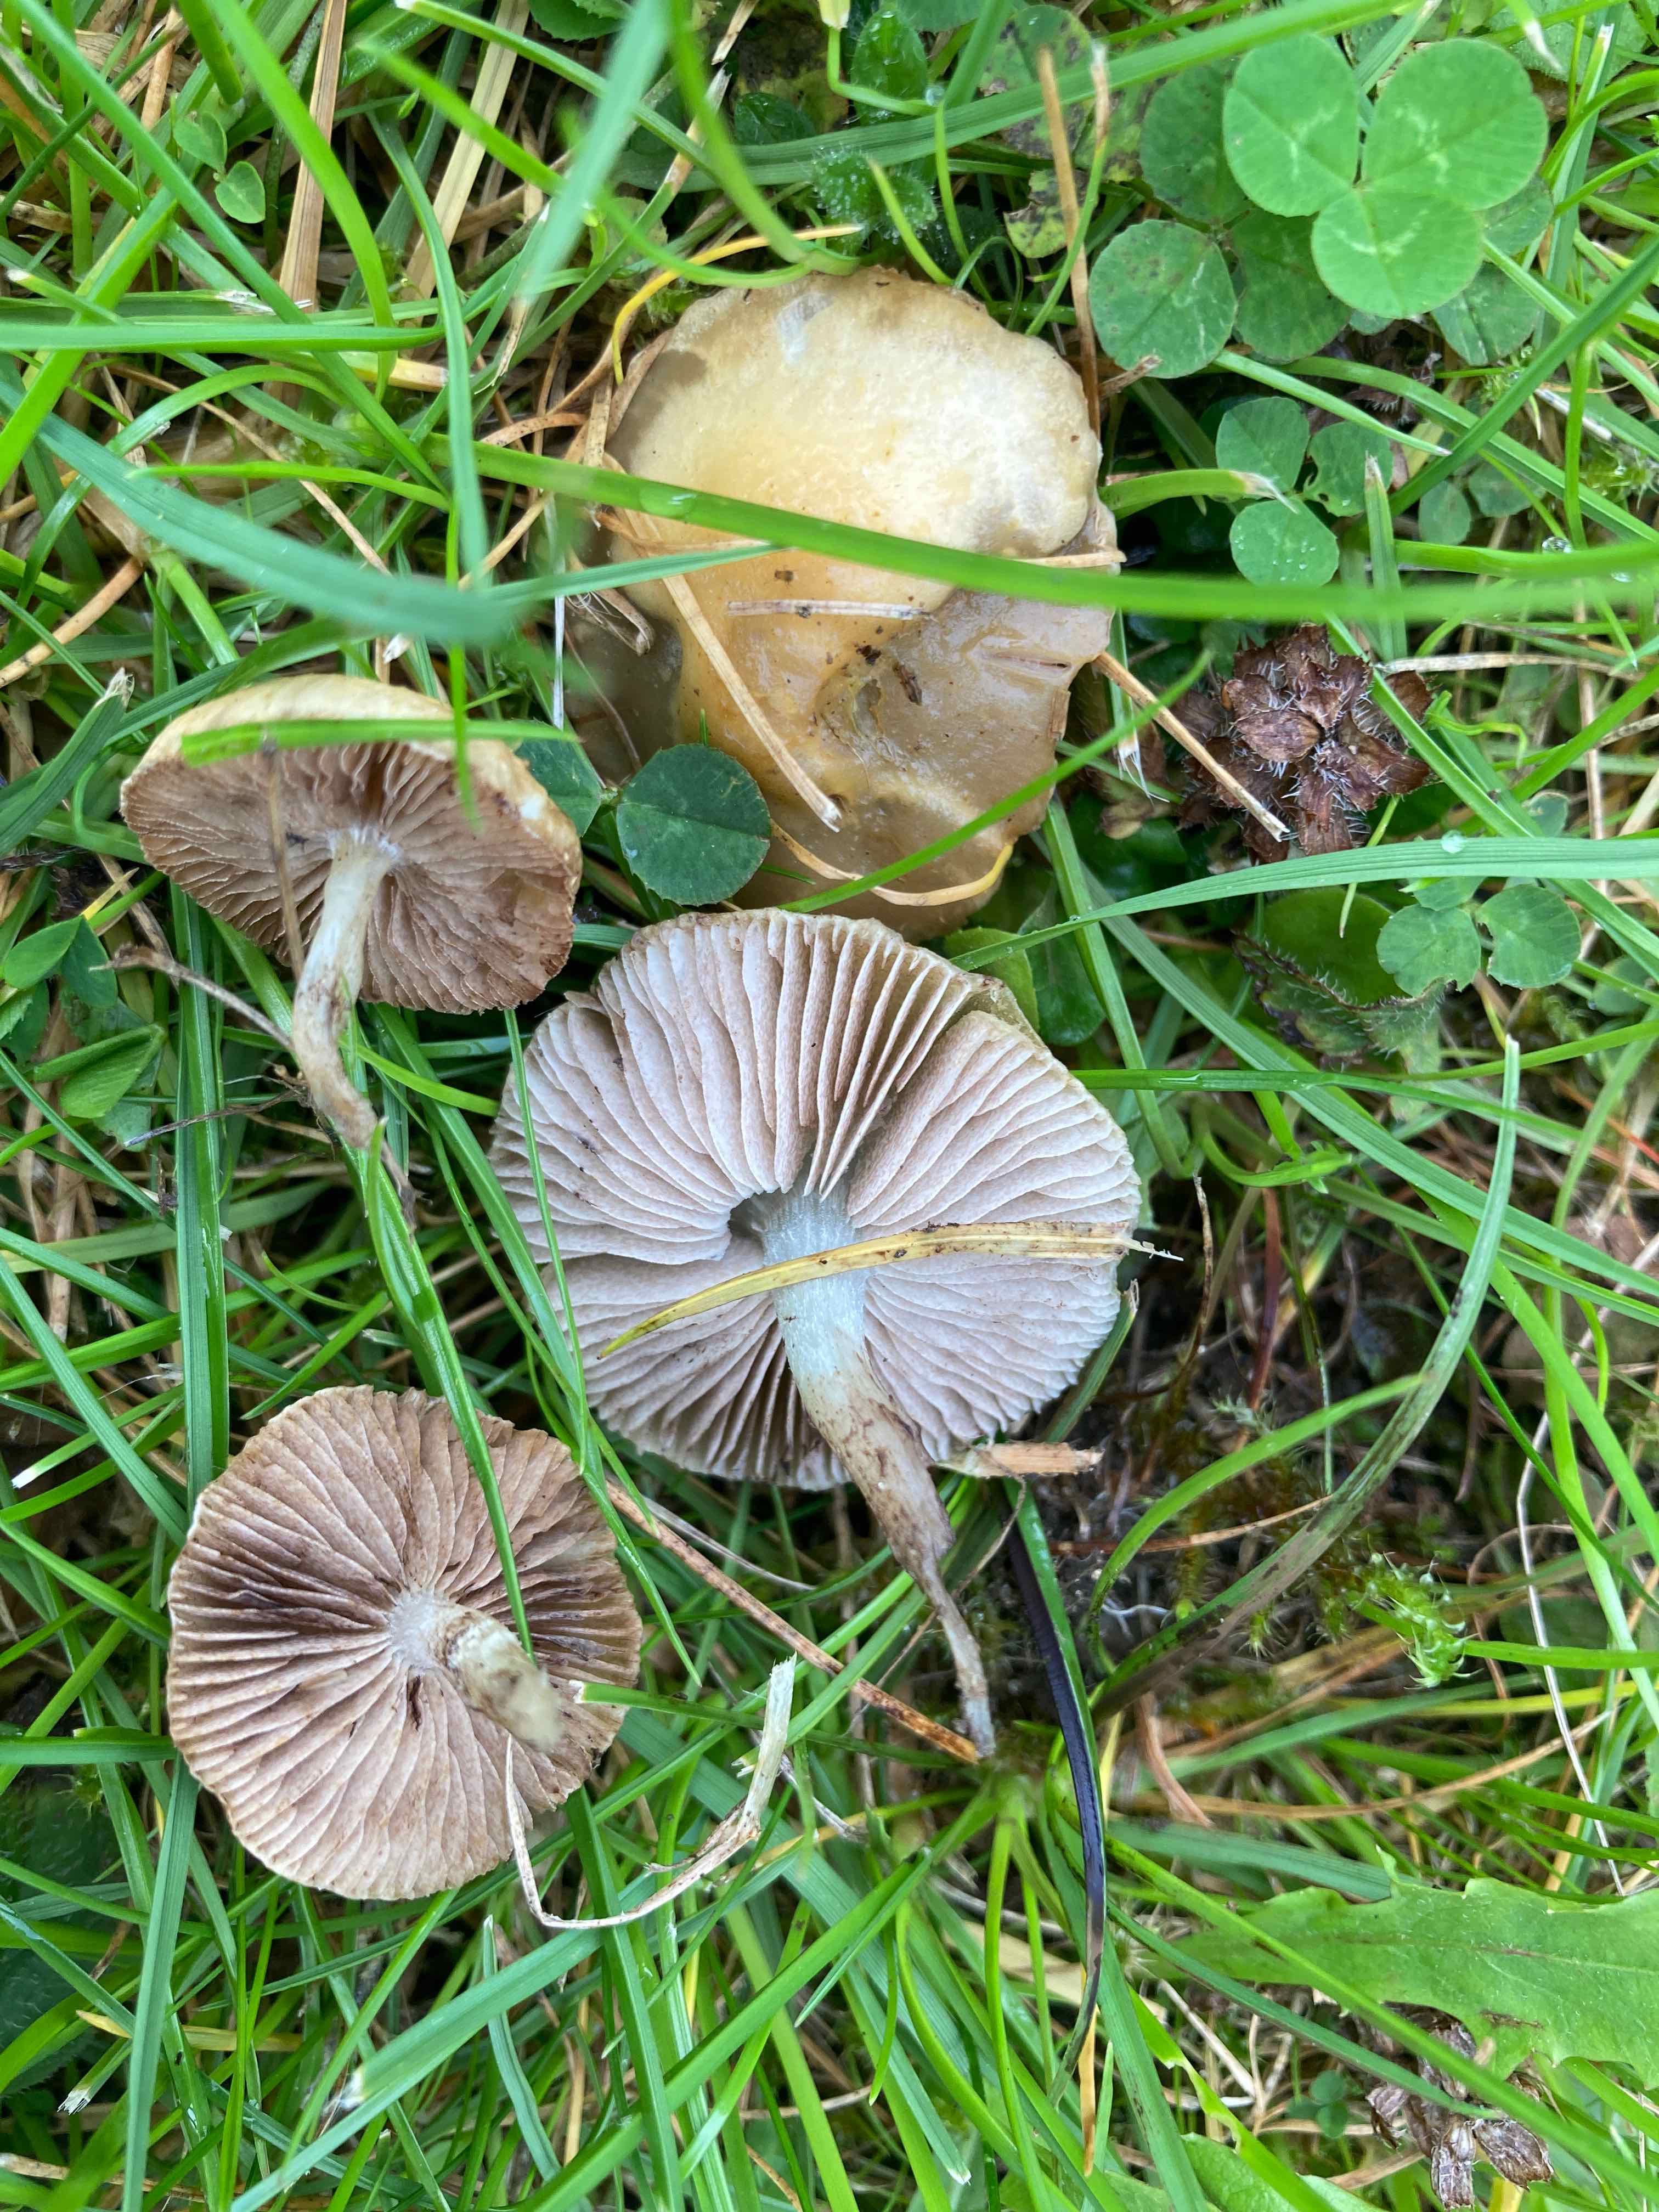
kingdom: Fungi
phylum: Basidiomycota
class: Agaricomycetes
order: Agaricales
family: Strophariaceae
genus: Stropharia
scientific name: Stropharia cyanea
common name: blågrøn bredblad
